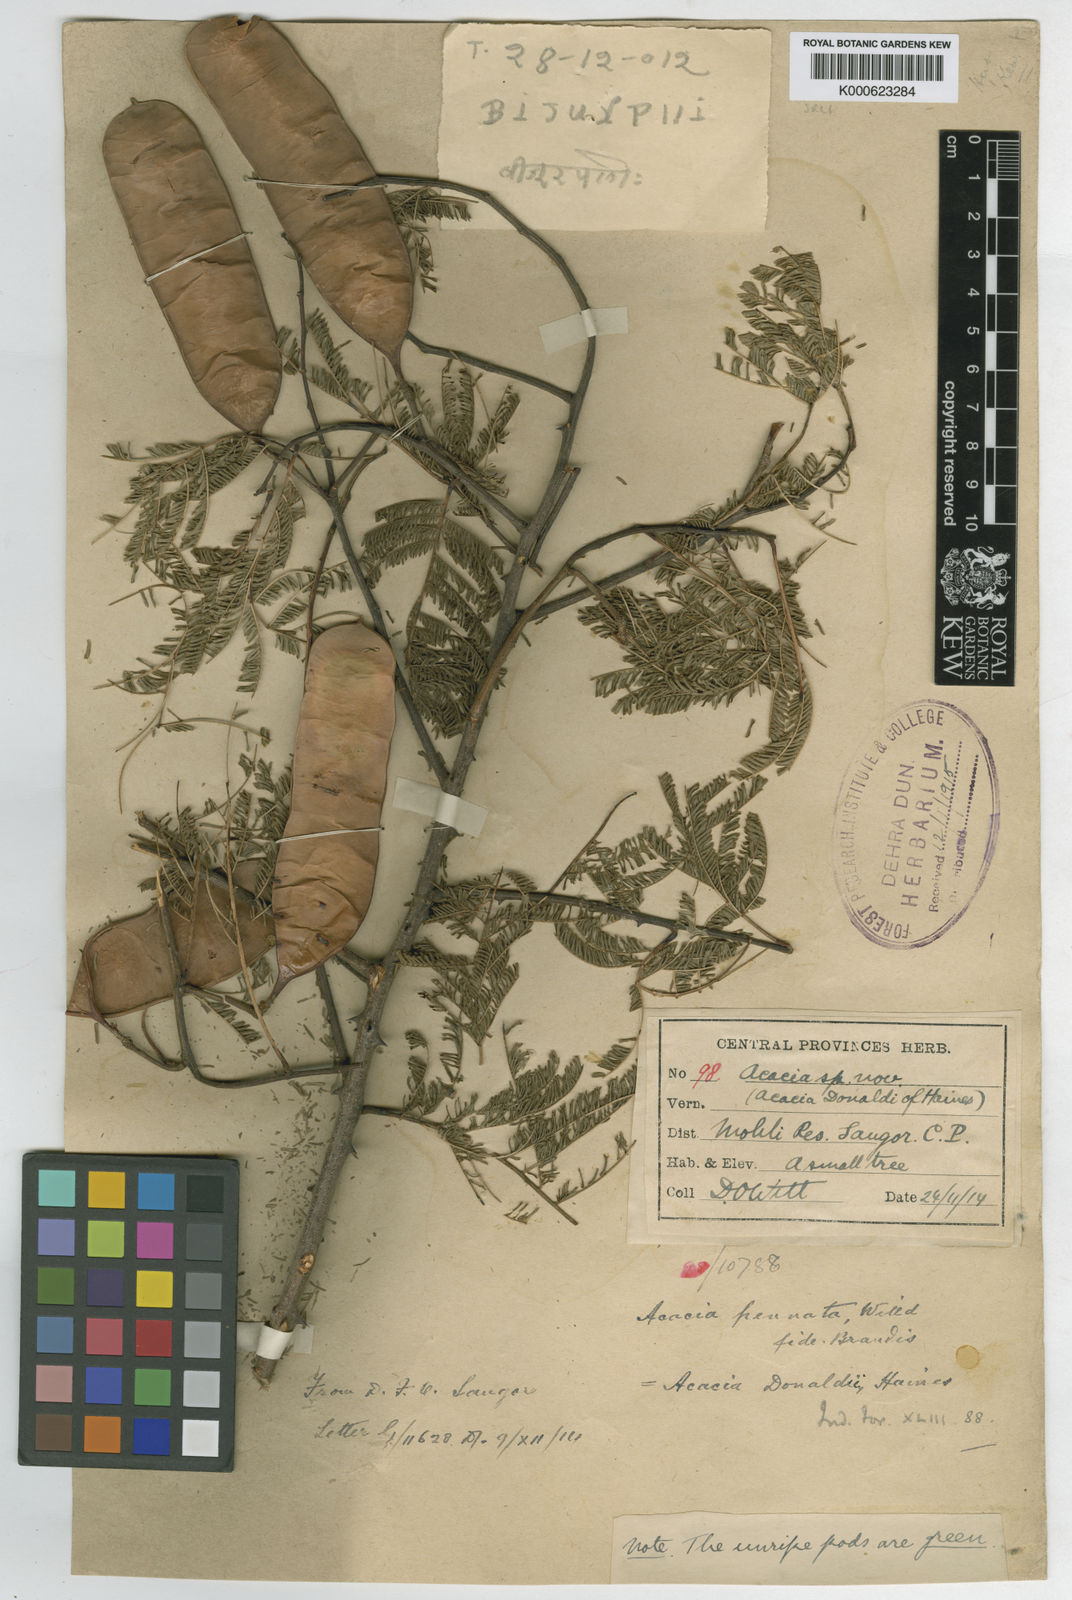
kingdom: Plantae
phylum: Tracheophyta
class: Magnoliopsida
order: Fabales
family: Fabaceae
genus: Senegalia
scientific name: Senegalia donaldi
